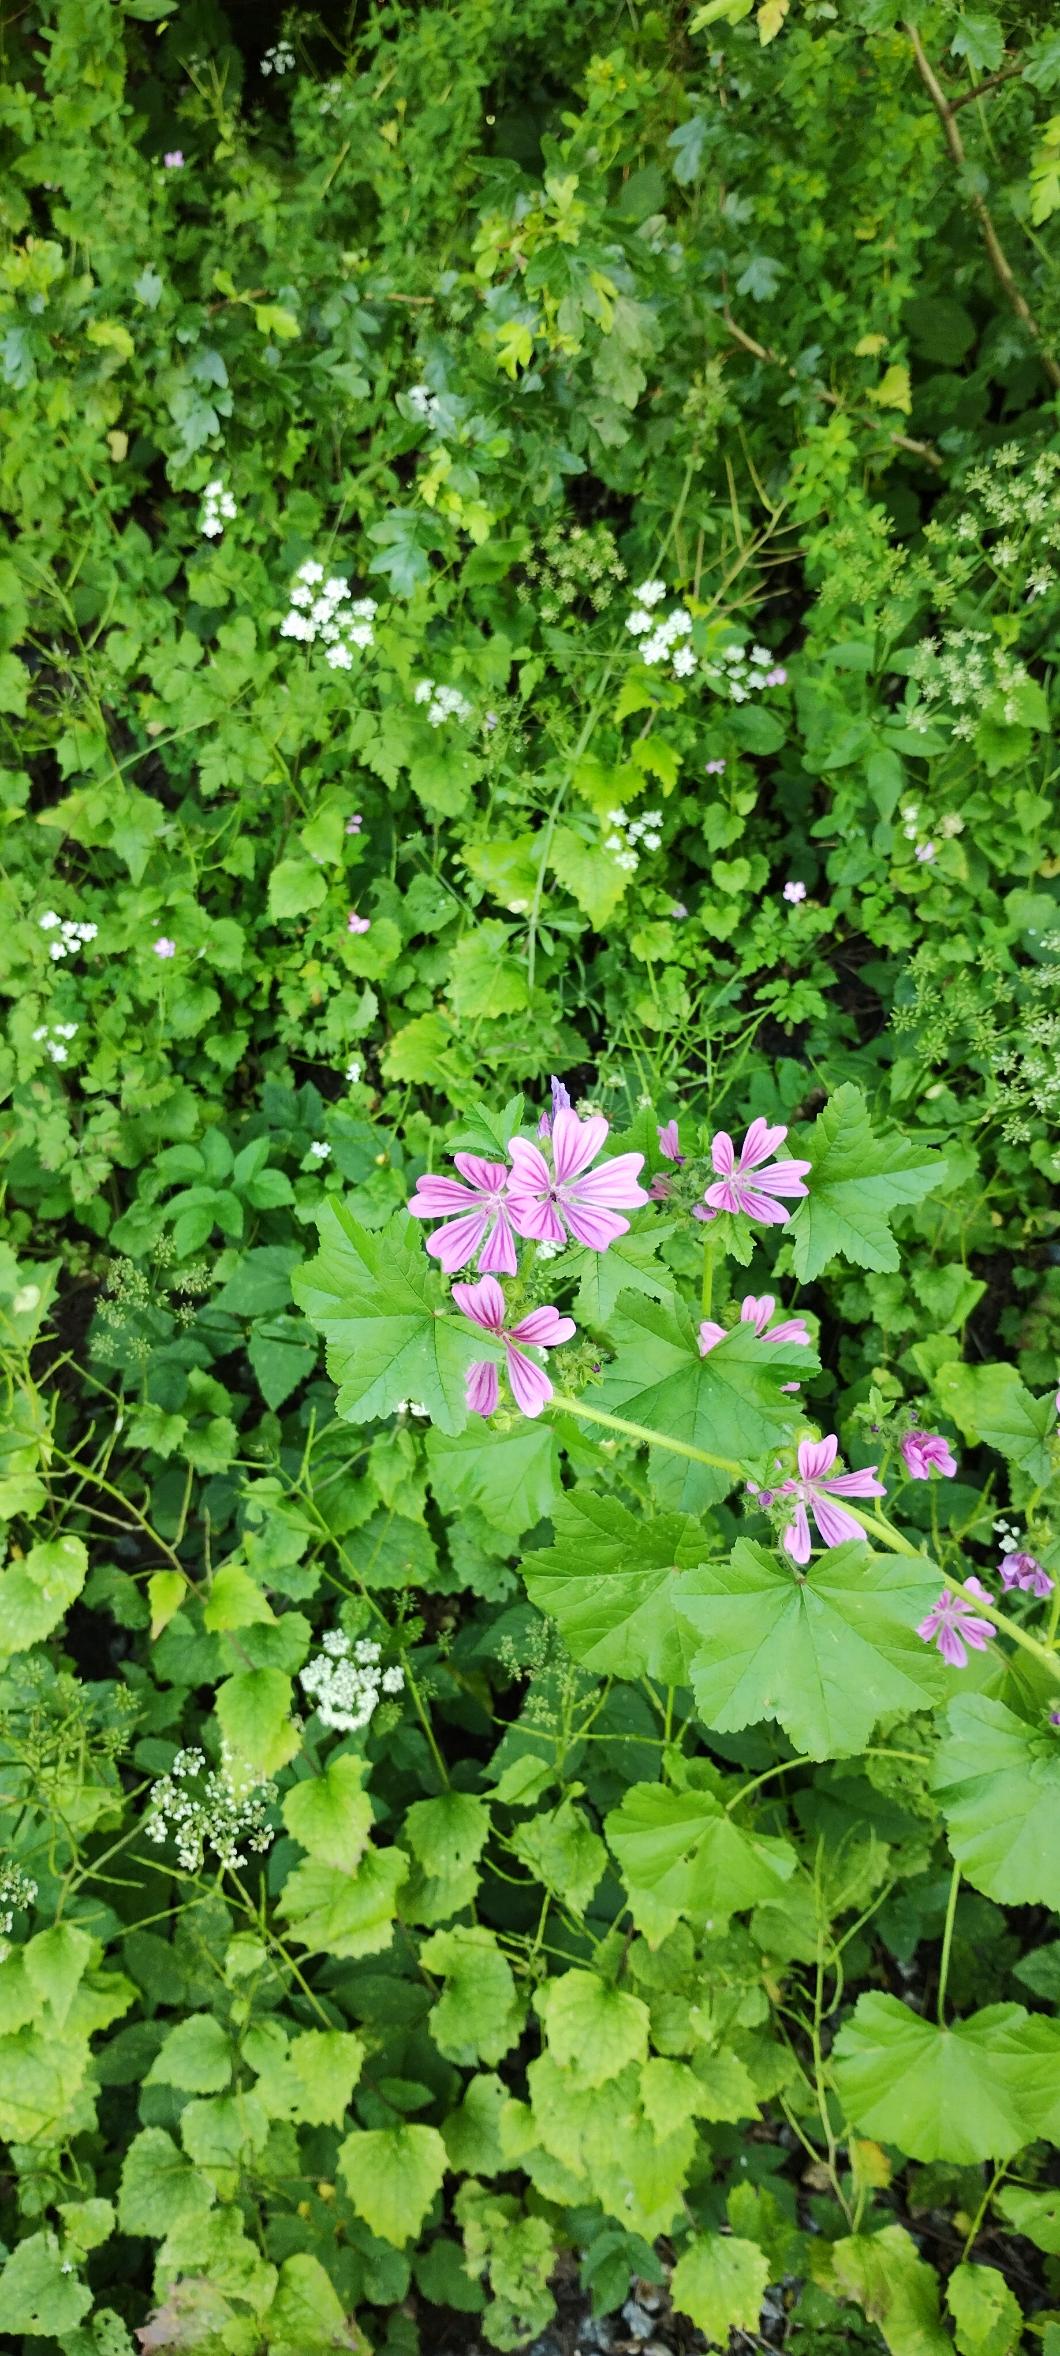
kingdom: Plantae
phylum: Tracheophyta
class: Magnoliopsida
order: Malvales
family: Malvaceae
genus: Malva
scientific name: Malva sylvestris
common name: Almindelig katost
